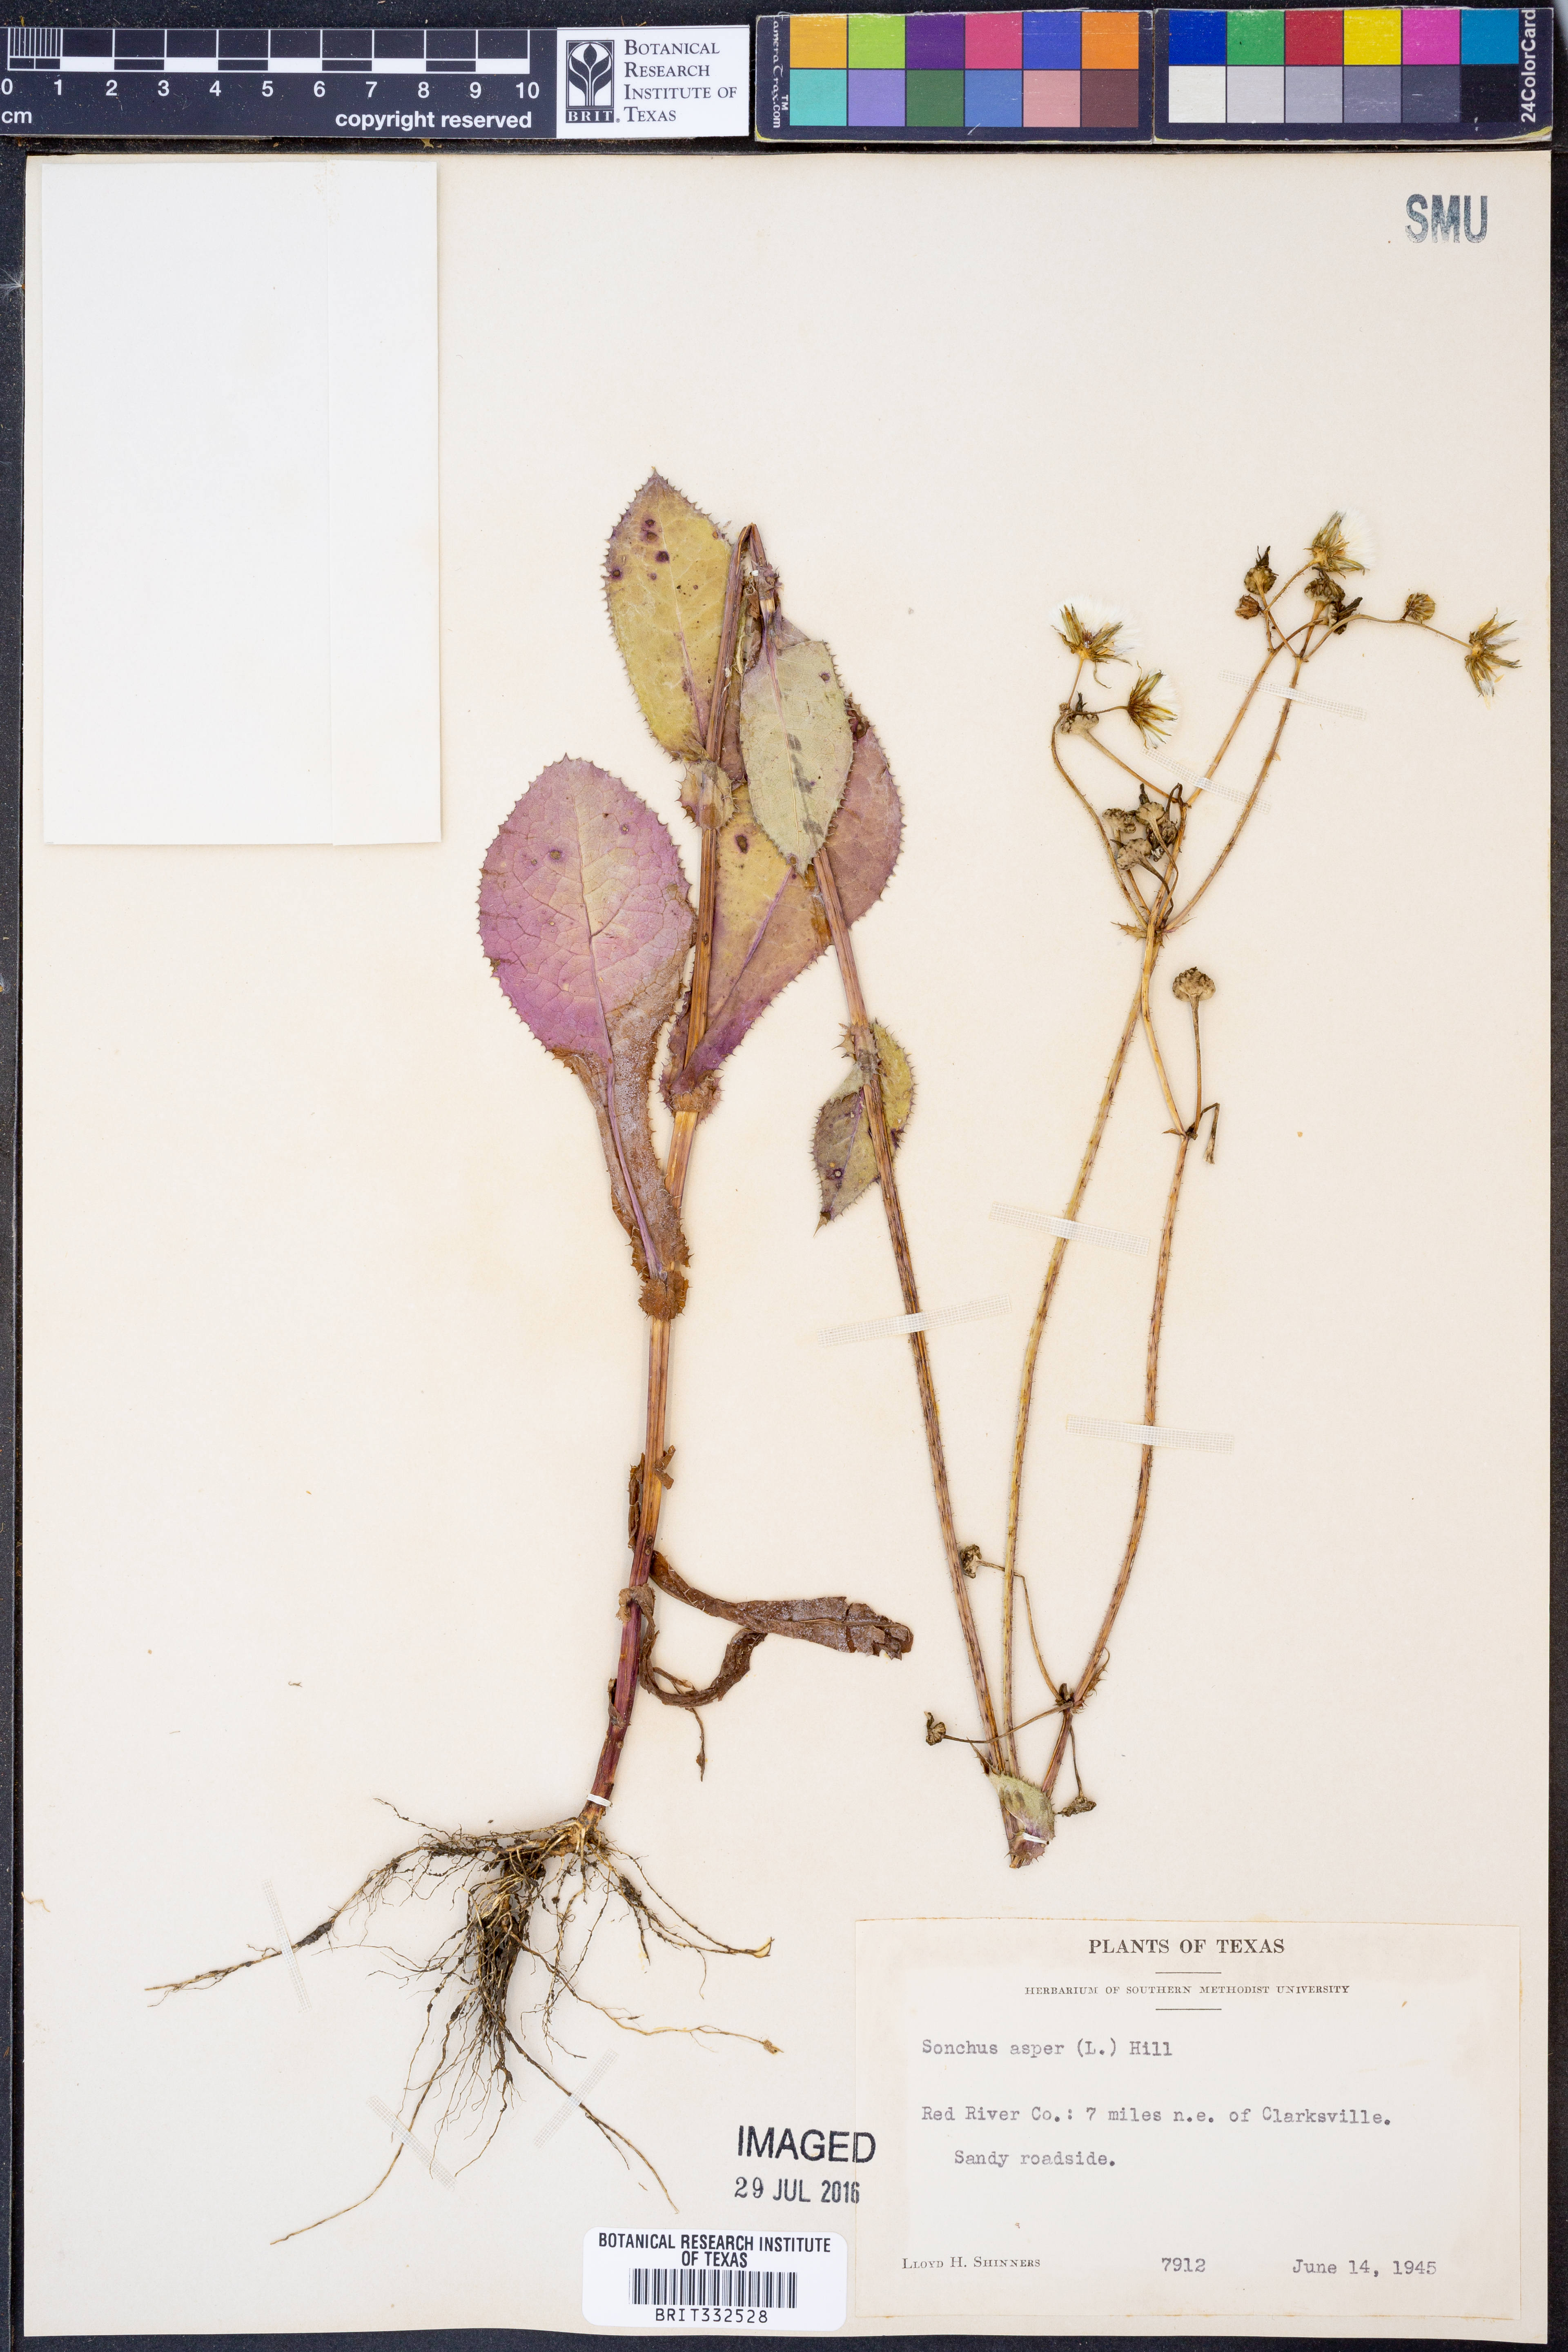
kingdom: Plantae
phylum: Tracheophyta
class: Magnoliopsida
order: Asterales
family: Asteraceae
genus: Sonchus
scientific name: Sonchus asper
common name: Prickly sow-thistle
